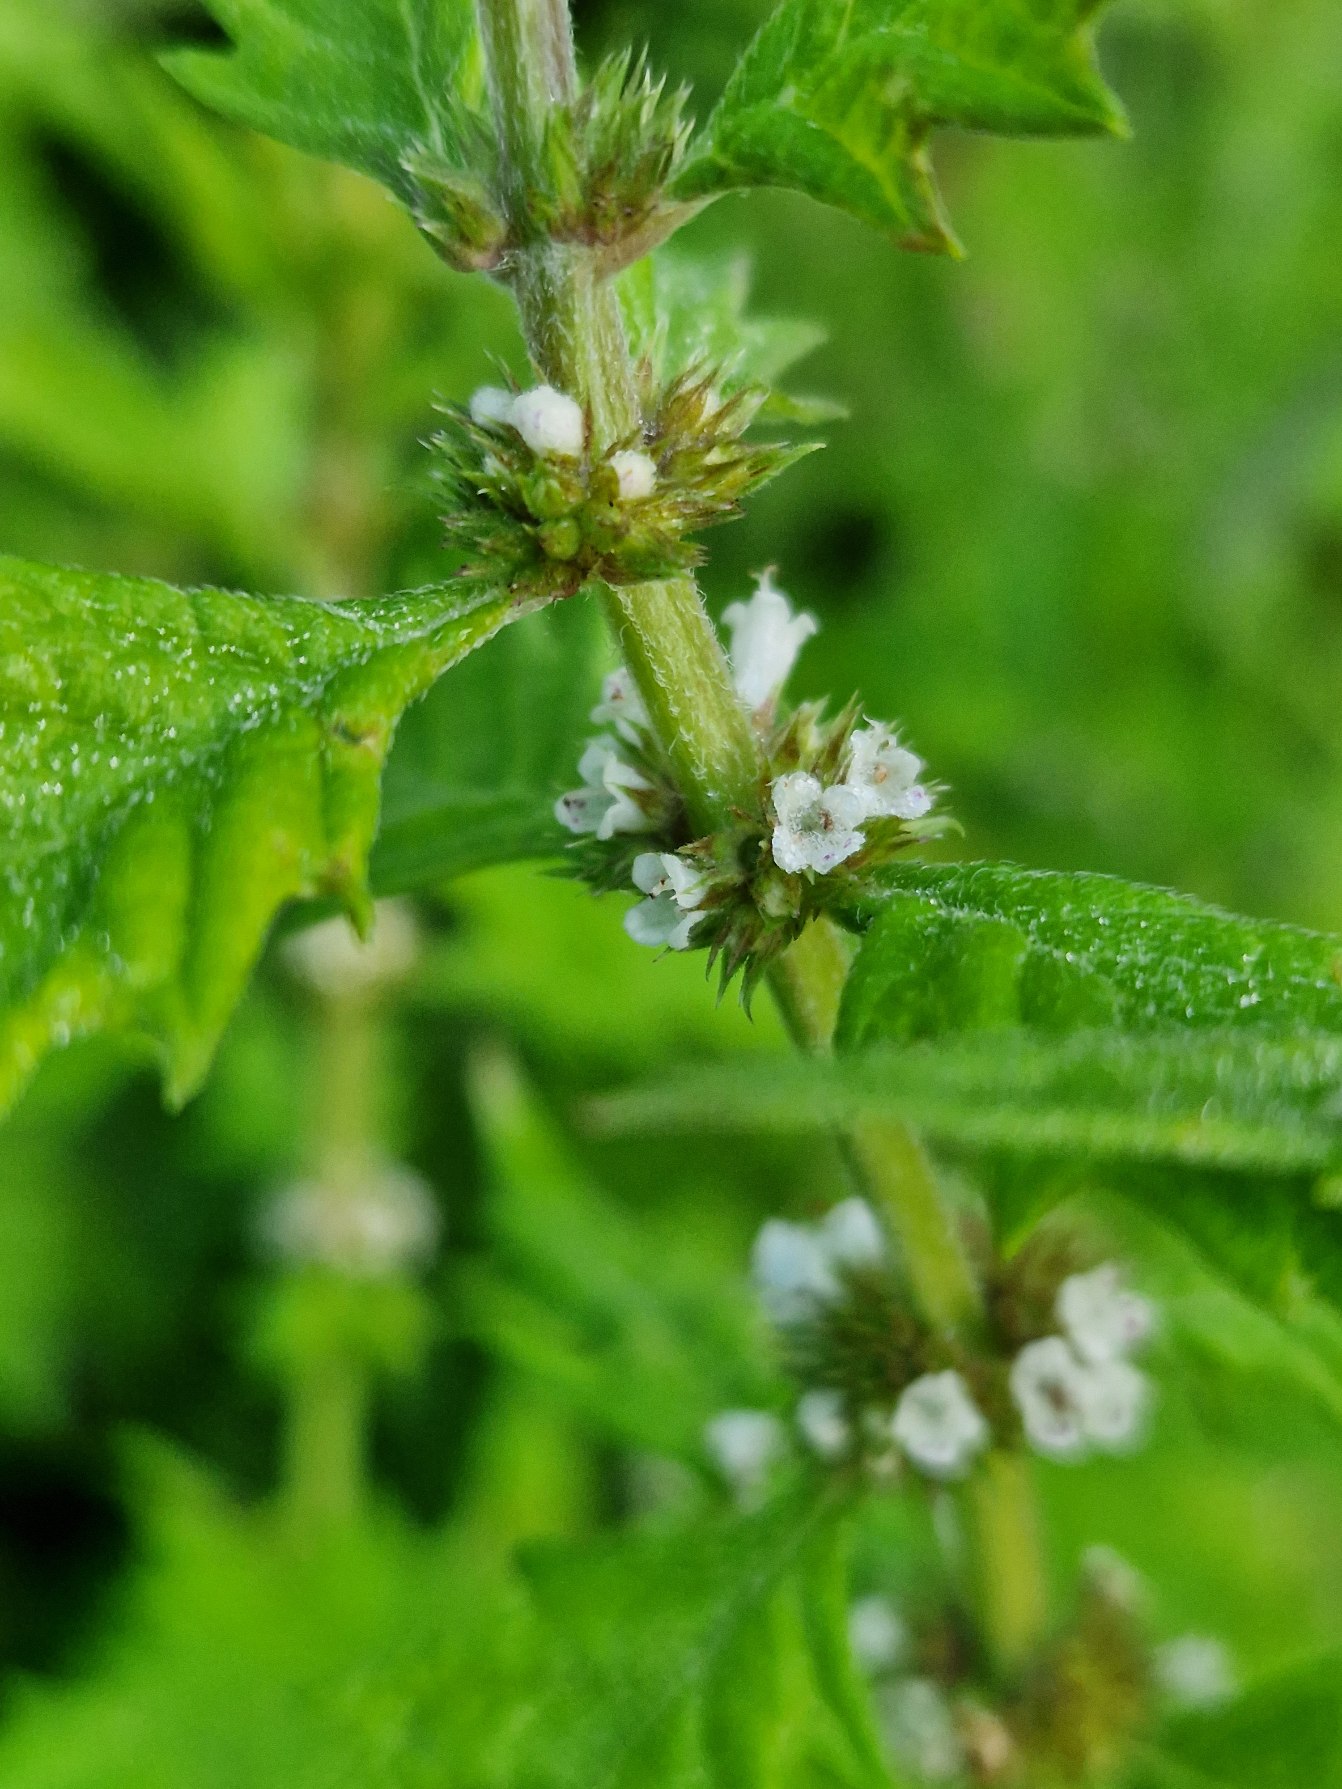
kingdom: Plantae
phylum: Tracheophyta
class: Magnoliopsida
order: Lamiales
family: Lamiaceae
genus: Lycopus
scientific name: Lycopus europaeus
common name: Sværtevæld
